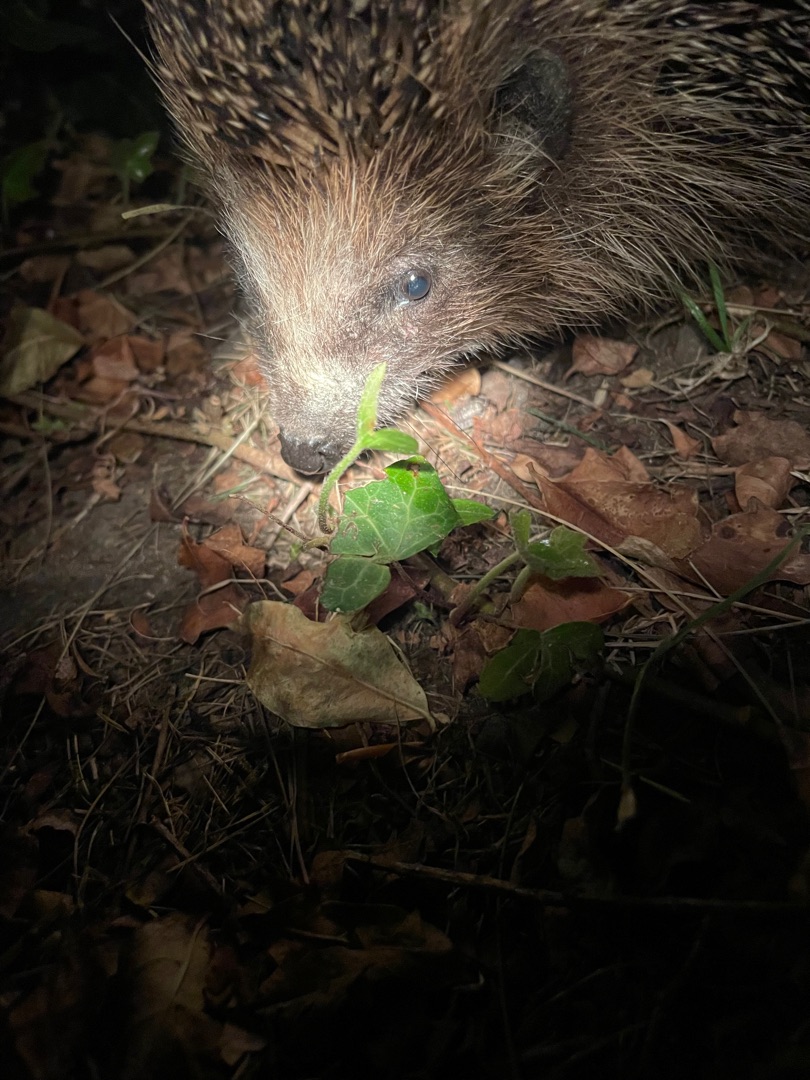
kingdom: Animalia
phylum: Chordata
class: Mammalia
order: Erinaceomorpha
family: Erinaceidae
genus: Erinaceus
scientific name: Erinaceus europaeus
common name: Pindsvin
